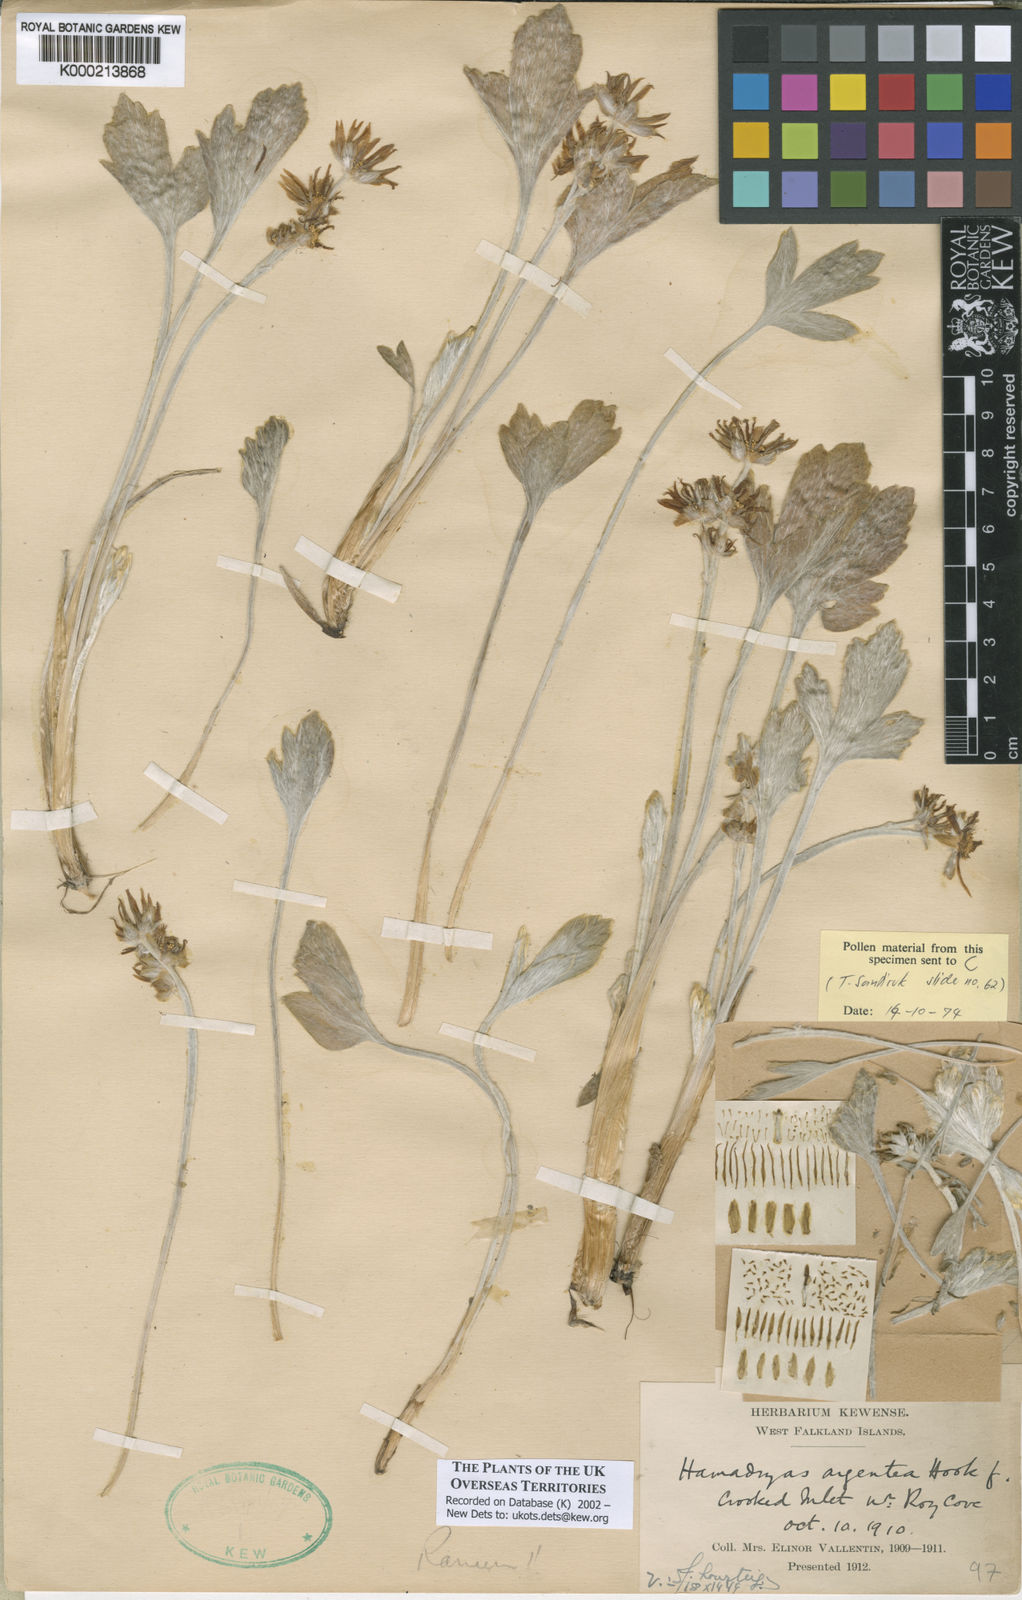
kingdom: Plantae
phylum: Tracheophyta
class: Magnoliopsida
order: Ranunculales
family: Ranunculaceae
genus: Hamadryas
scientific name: Hamadryas argentea
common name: Silvery buttercup
